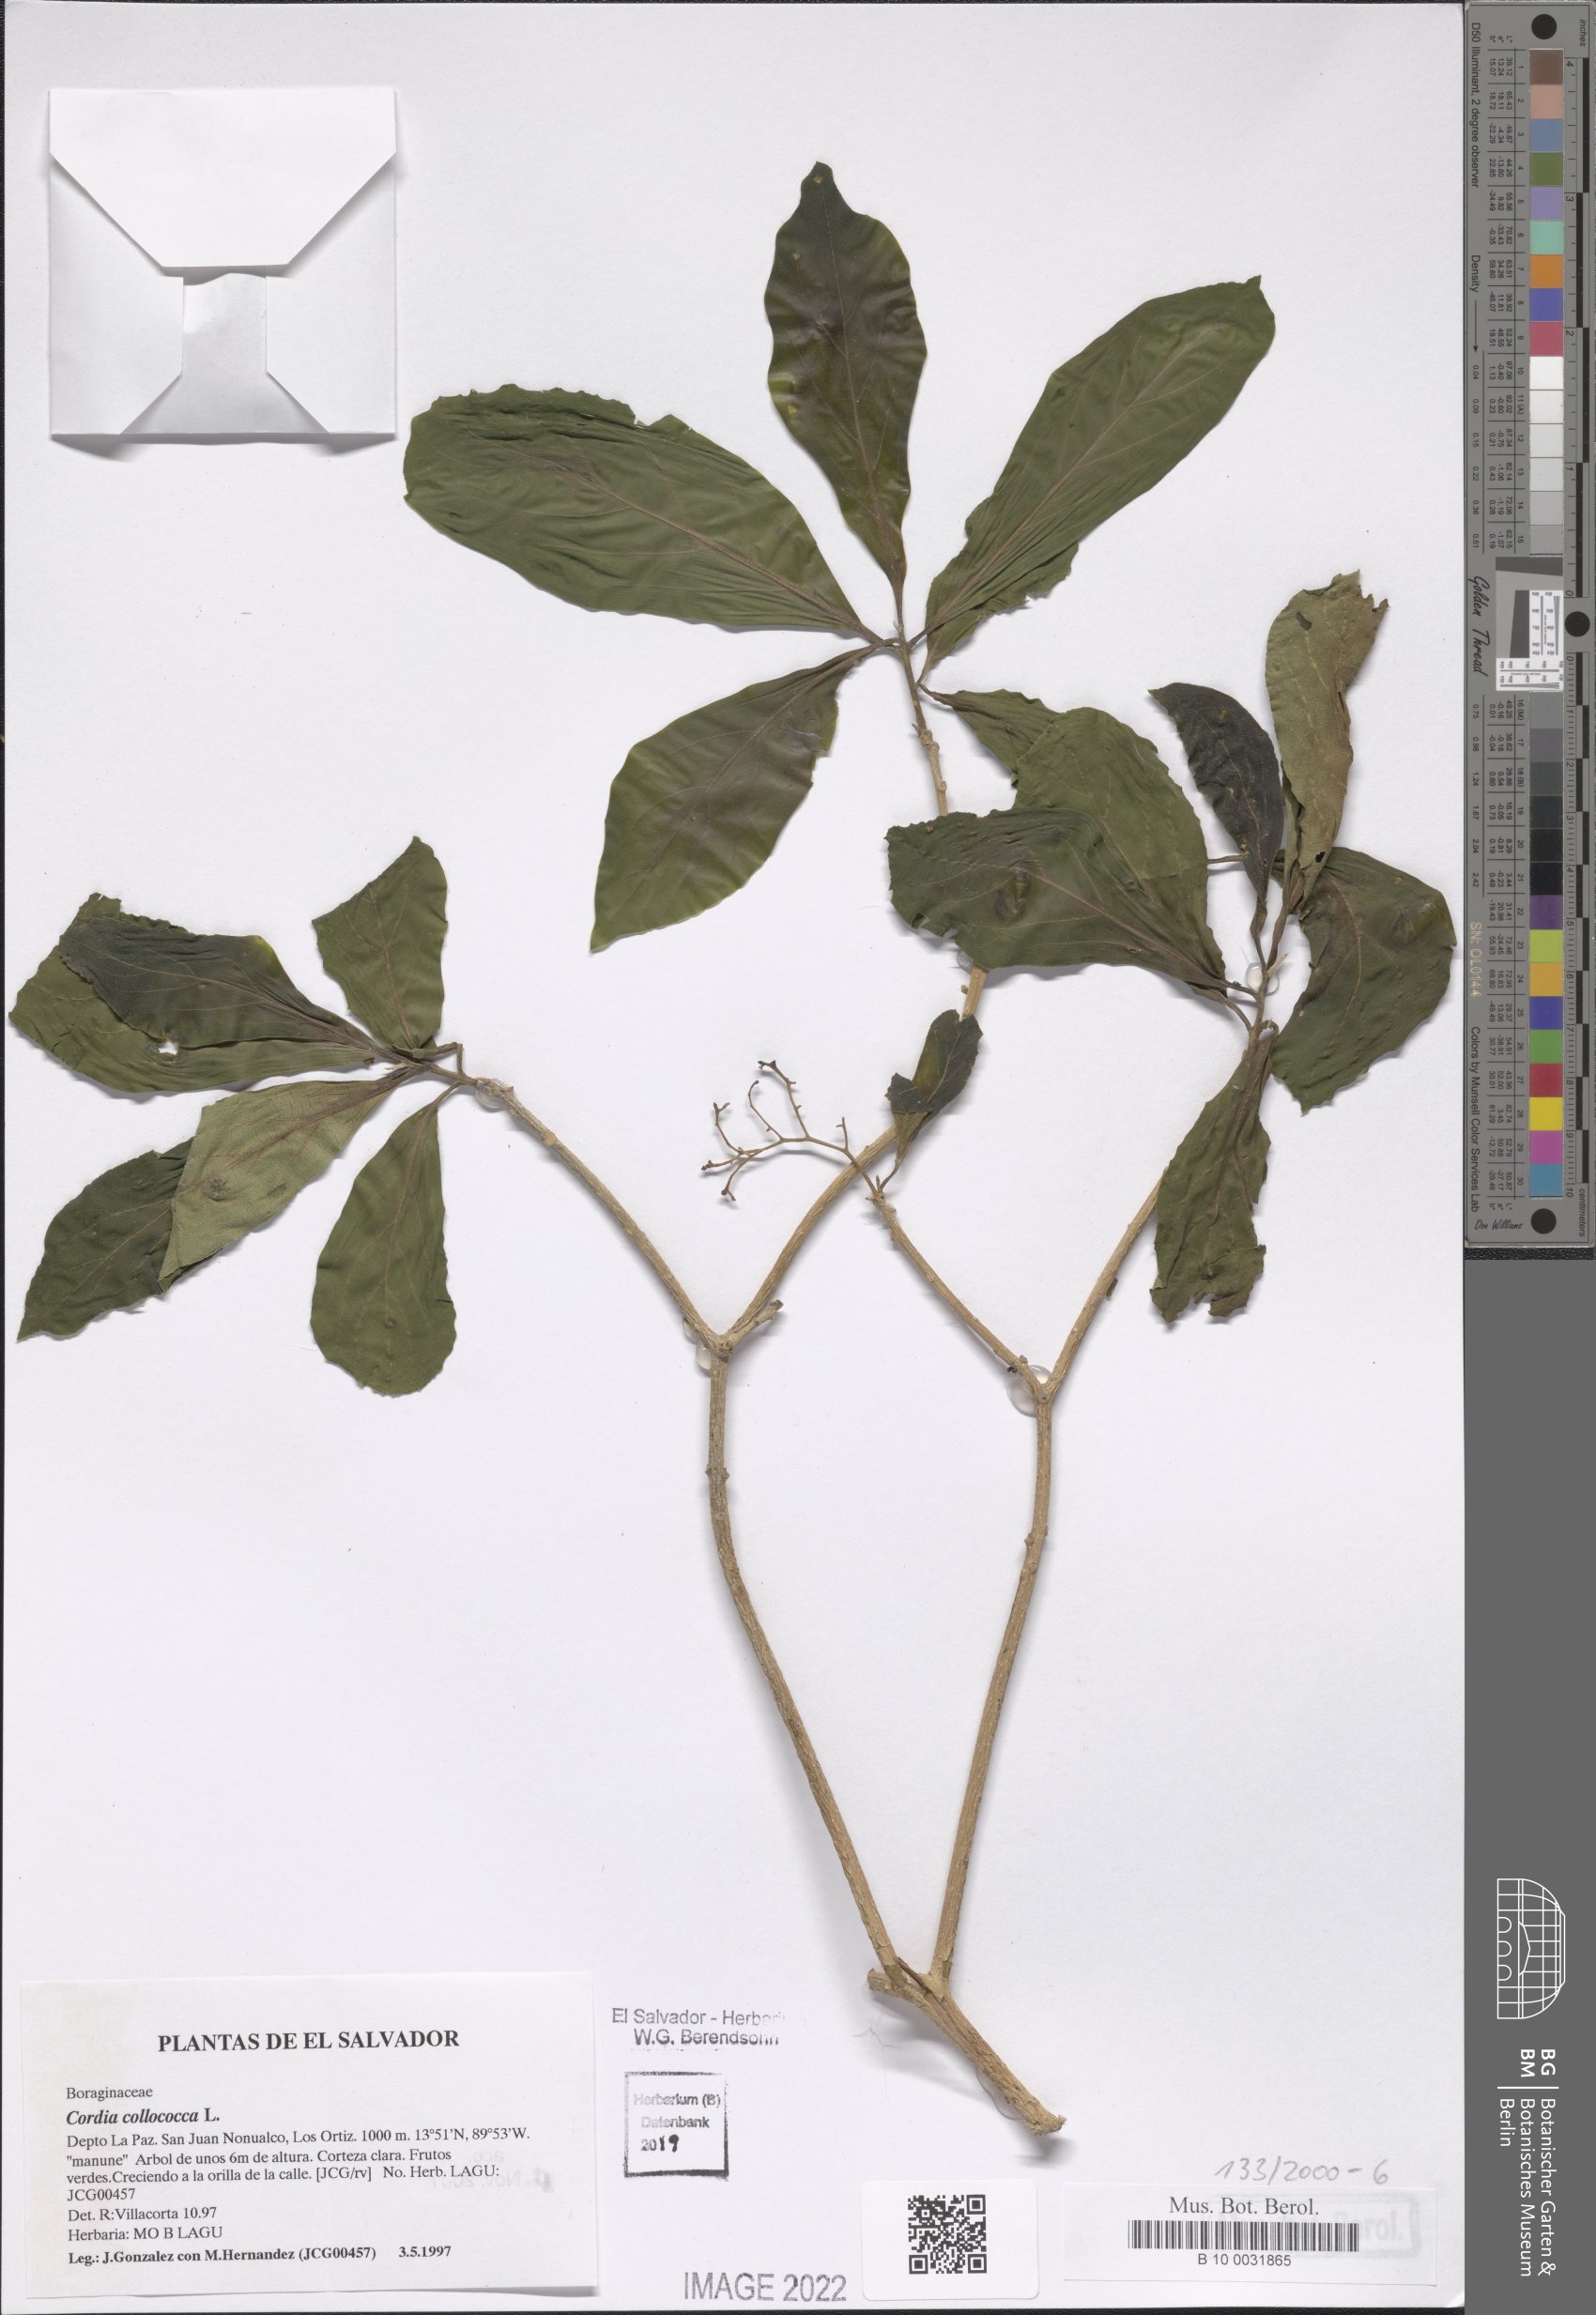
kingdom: Plantae
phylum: Tracheophyta
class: Magnoliopsida
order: Boraginales
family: Cordiaceae
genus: Cordia
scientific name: Cordia collococca
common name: Clammy cherry
